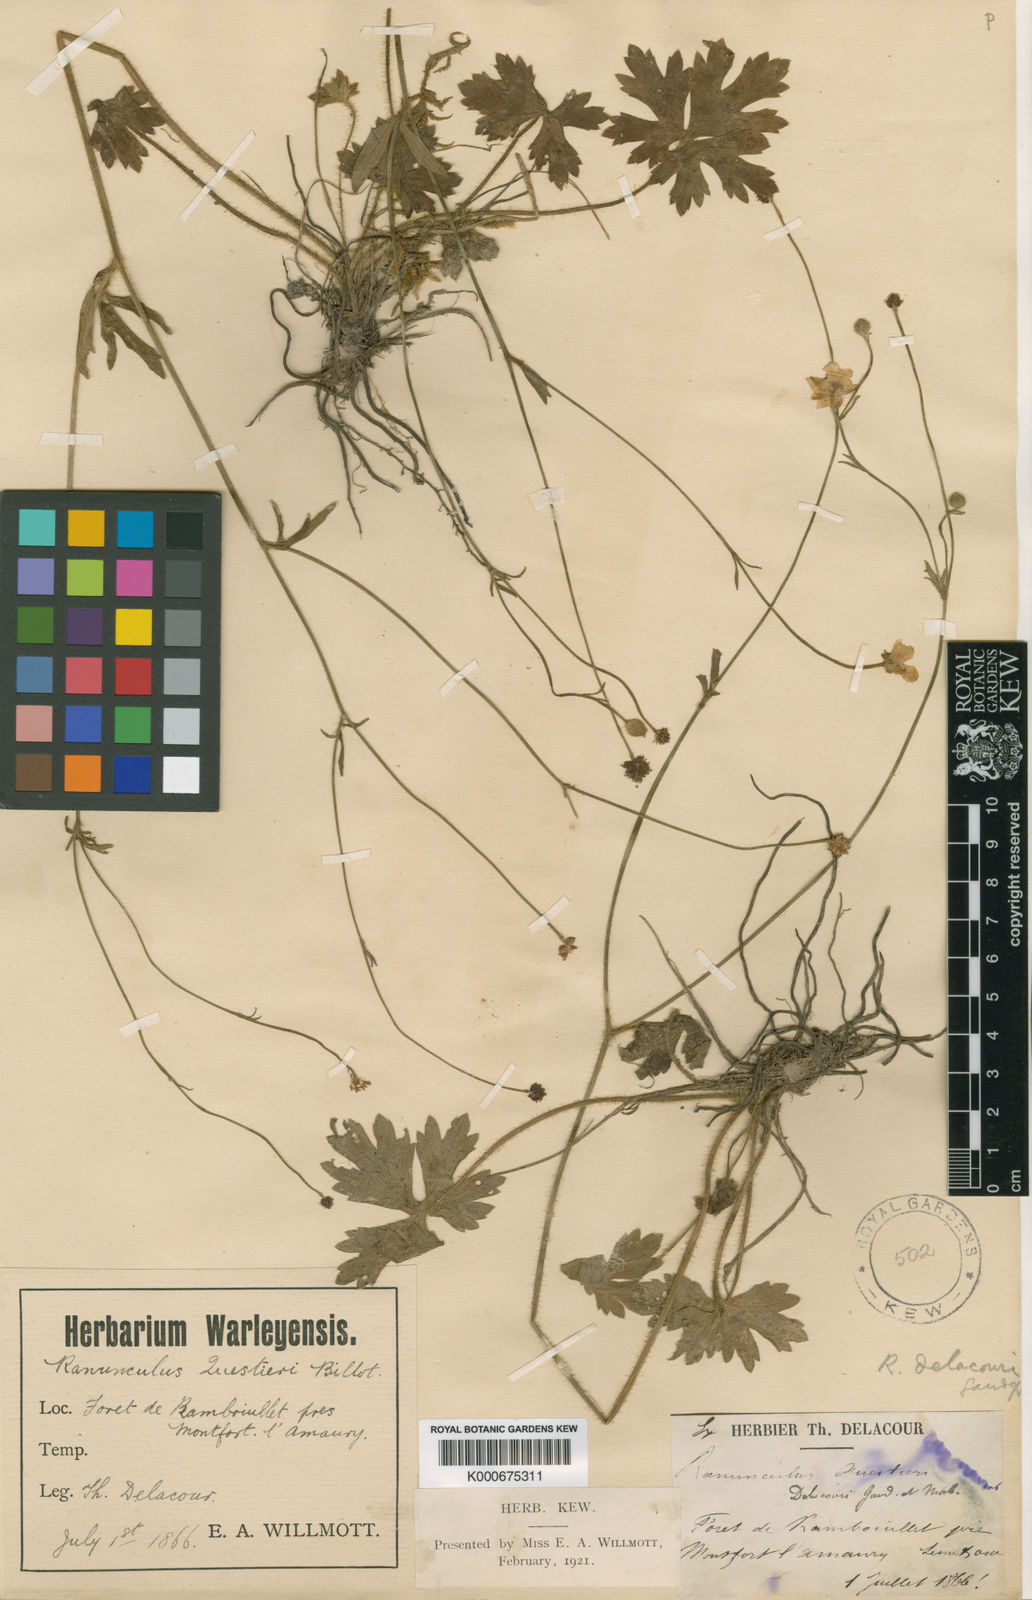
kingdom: Plantae
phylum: Tracheophyta
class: Magnoliopsida
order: Ranunculales
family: Ranunculaceae
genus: Ranunculus
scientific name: Ranunculus polyanthemos
